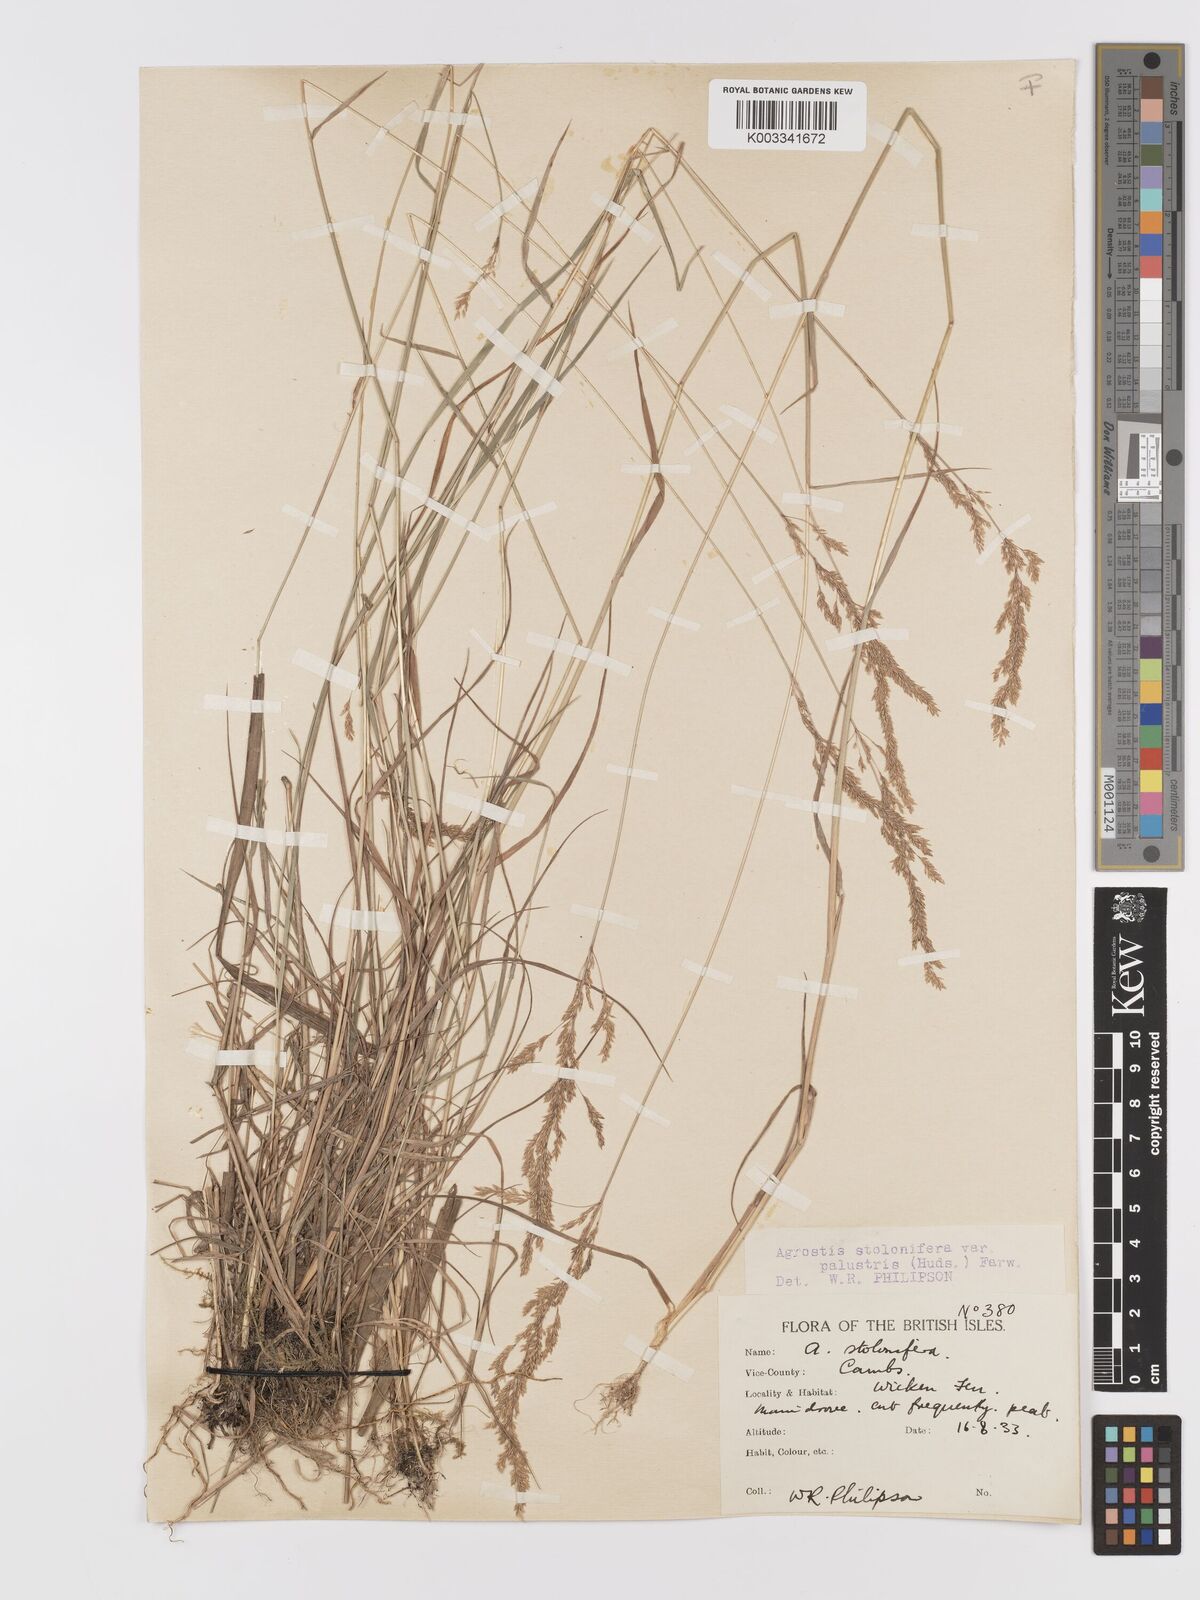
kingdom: Plantae
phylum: Tracheophyta
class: Liliopsida
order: Poales
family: Poaceae
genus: Agrostis
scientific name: Agrostis stolonifera
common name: Creeping bentgrass
